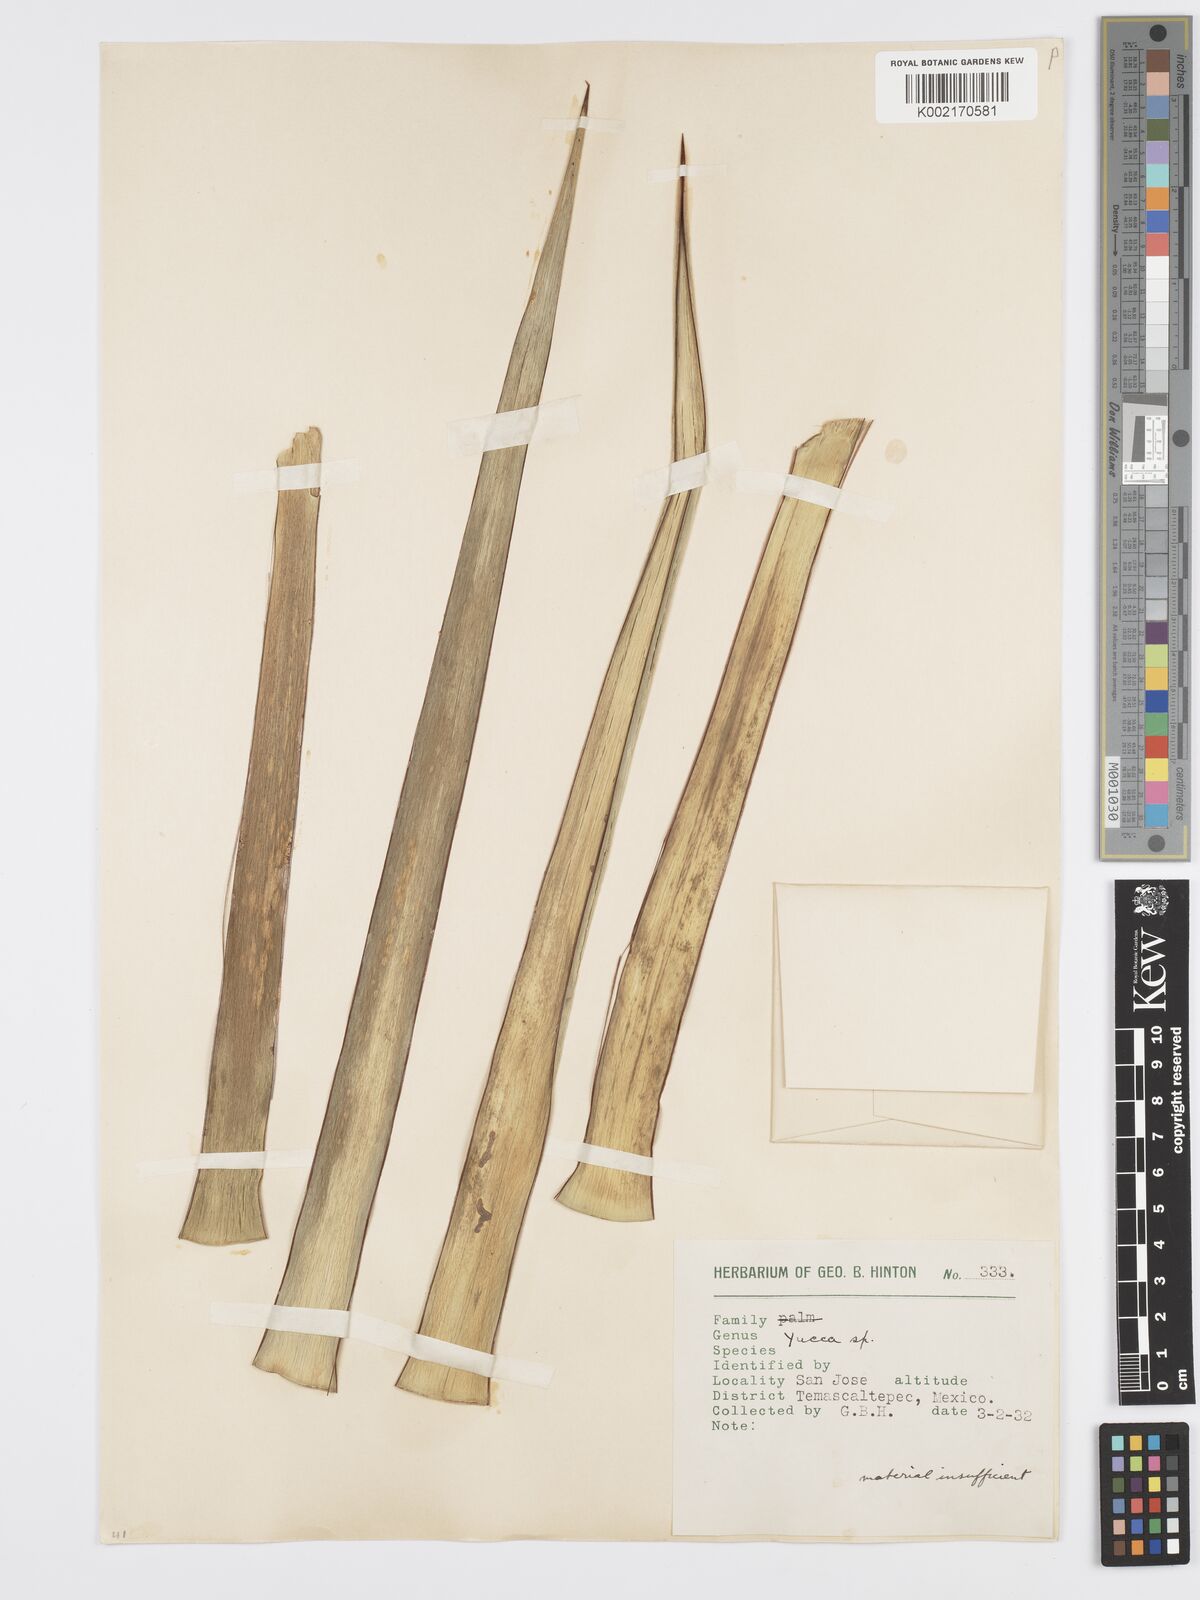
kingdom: Plantae
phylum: Tracheophyta
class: Liliopsida
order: Asparagales
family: Asparagaceae
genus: Yucca
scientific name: Yucca
